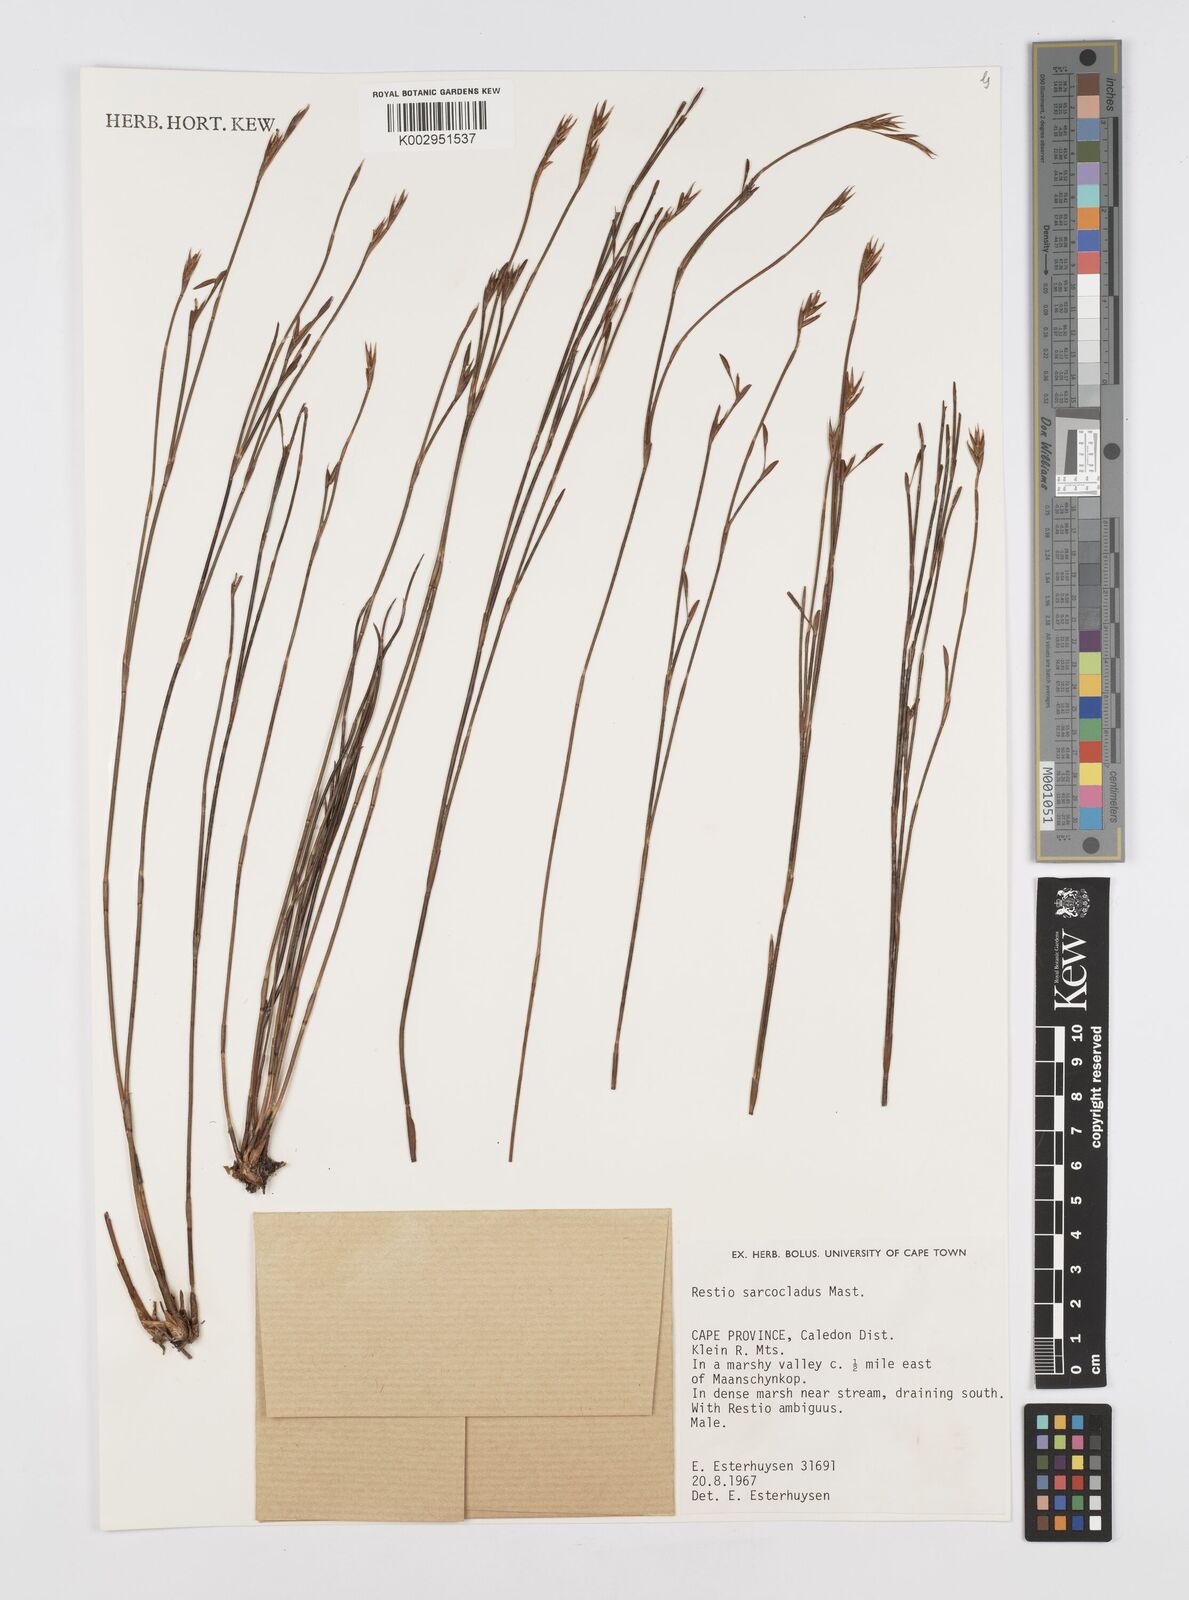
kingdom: Plantae
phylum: Tracheophyta
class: Liliopsida
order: Poales
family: Restionaceae
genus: Restio
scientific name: Restio saroclados
